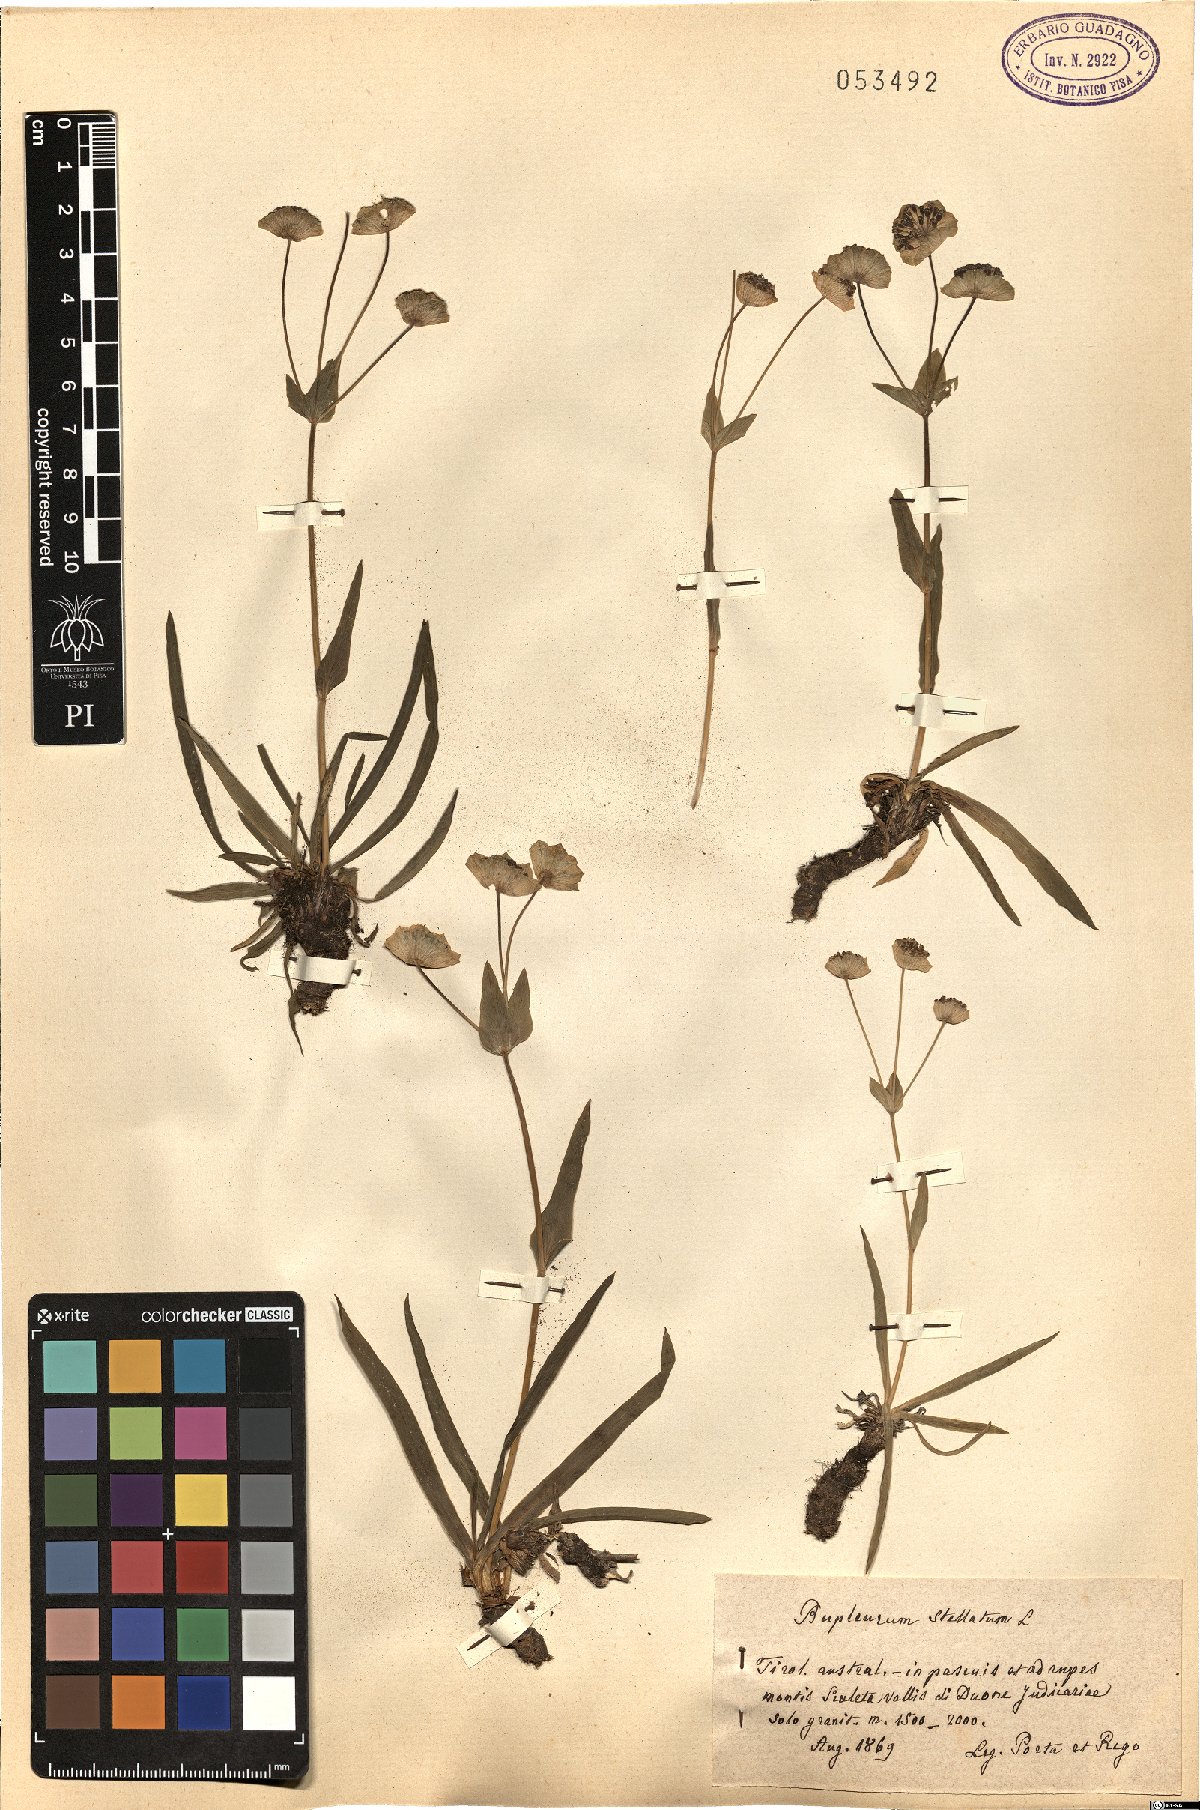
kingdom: Plantae
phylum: Tracheophyta
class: Magnoliopsida
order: Apiales
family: Apiaceae
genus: Bupleurum
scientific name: Bupleurum stellatum
